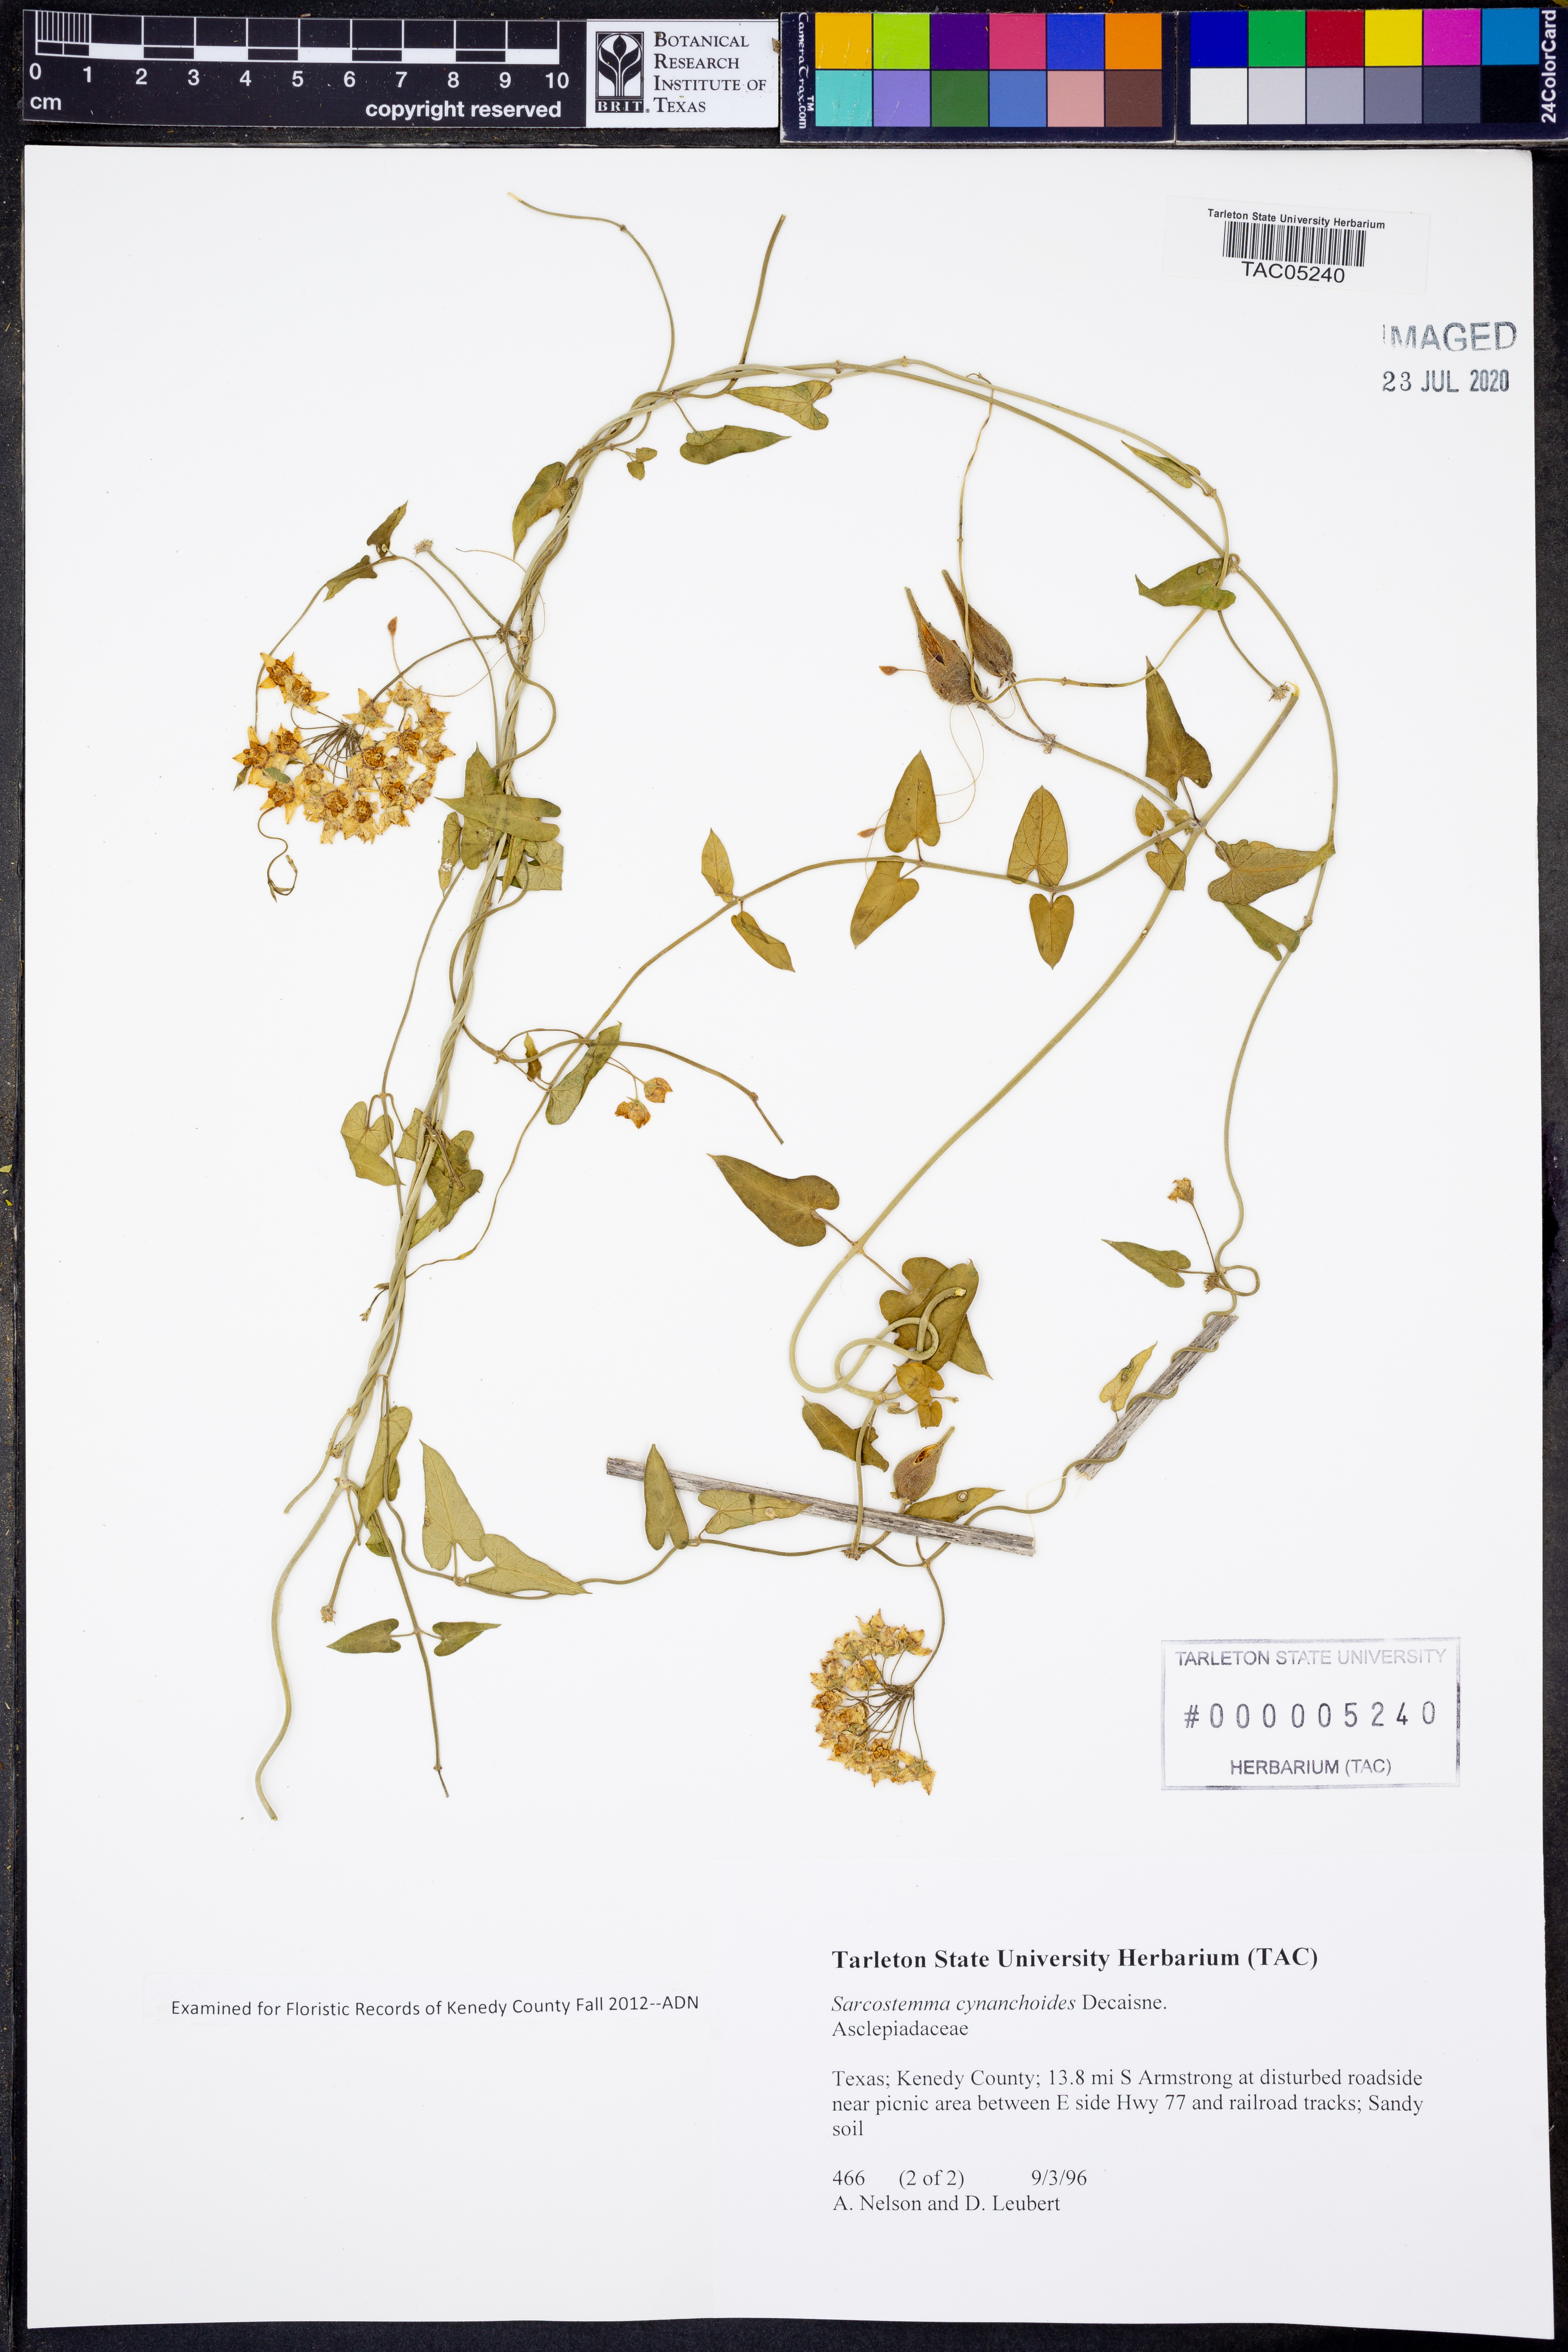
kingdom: Plantae
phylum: Tracheophyta
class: Magnoliopsida
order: Gentianales
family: Apocynaceae
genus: Funastrum
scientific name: Funastrum cynanchoides
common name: Climbing-milkweed
